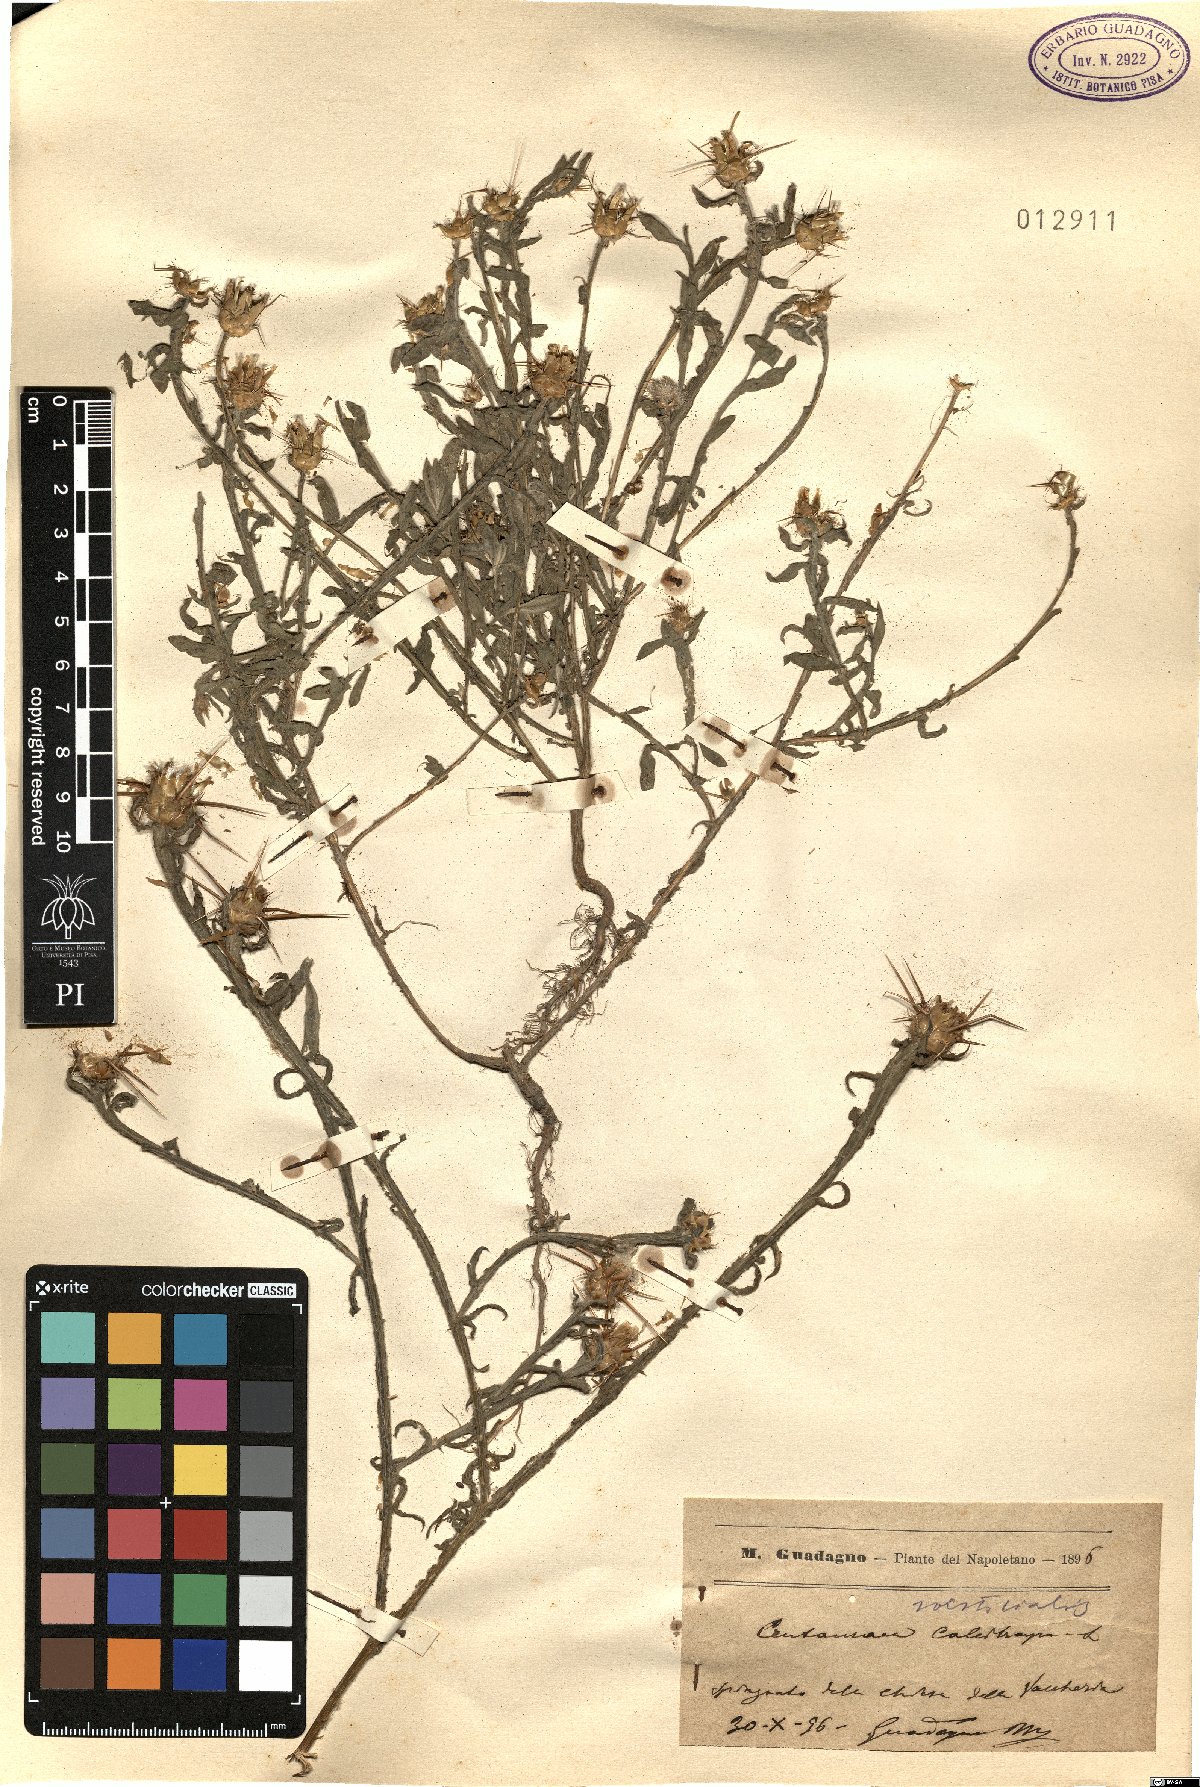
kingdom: Plantae
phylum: Tracheophyta
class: Magnoliopsida
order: Asterales
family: Asteraceae
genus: Centaurea
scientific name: Centaurea solstitialis
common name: Yellow star-thistle
